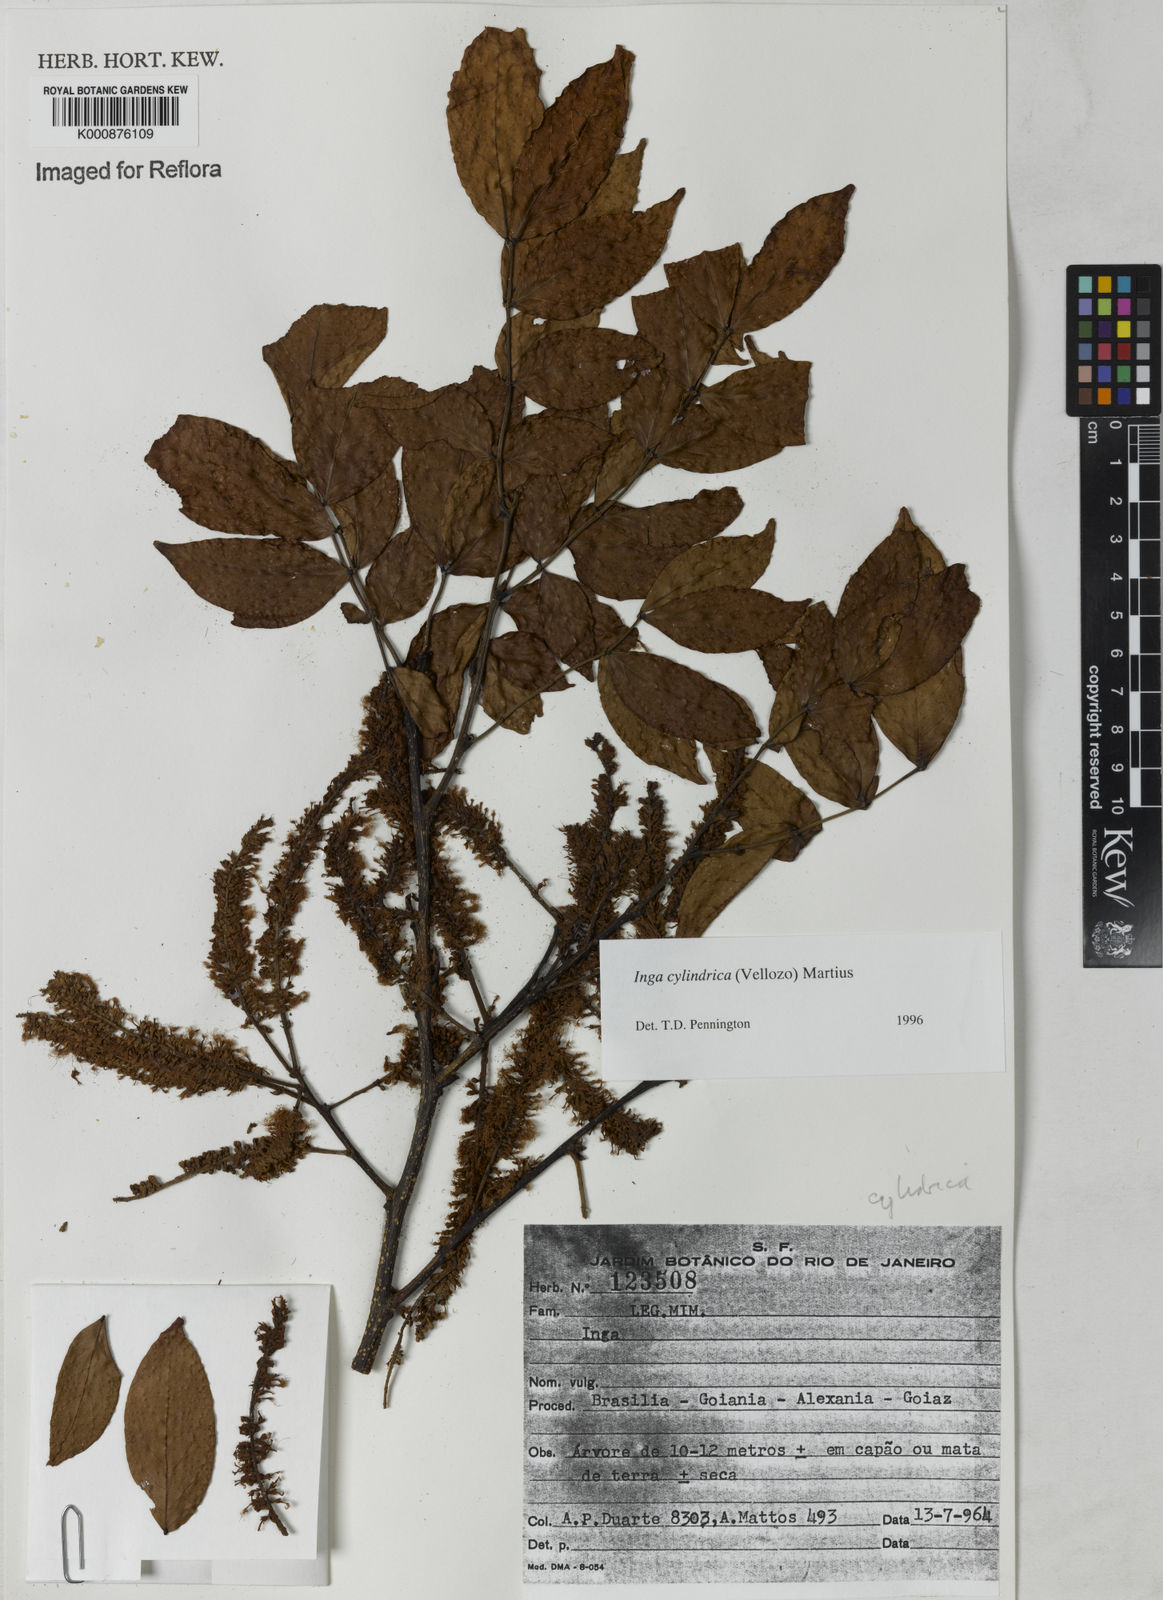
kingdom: Plantae
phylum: Tracheophyta
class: Magnoliopsida
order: Fabales
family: Fabaceae
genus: Inga
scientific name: Inga cylindrica
